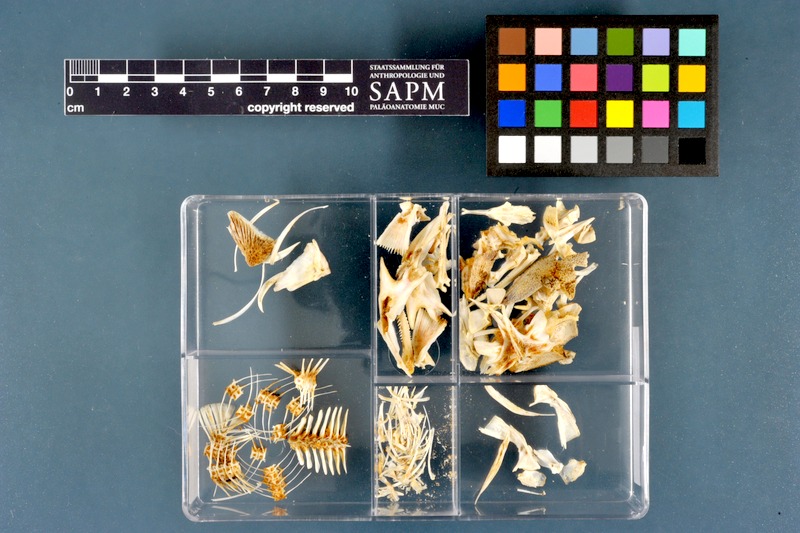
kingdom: Animalia
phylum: Chordata
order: Siluriformes
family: Claroteidae
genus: Auchenoglanis
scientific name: Auchenoglanis occidentalis
